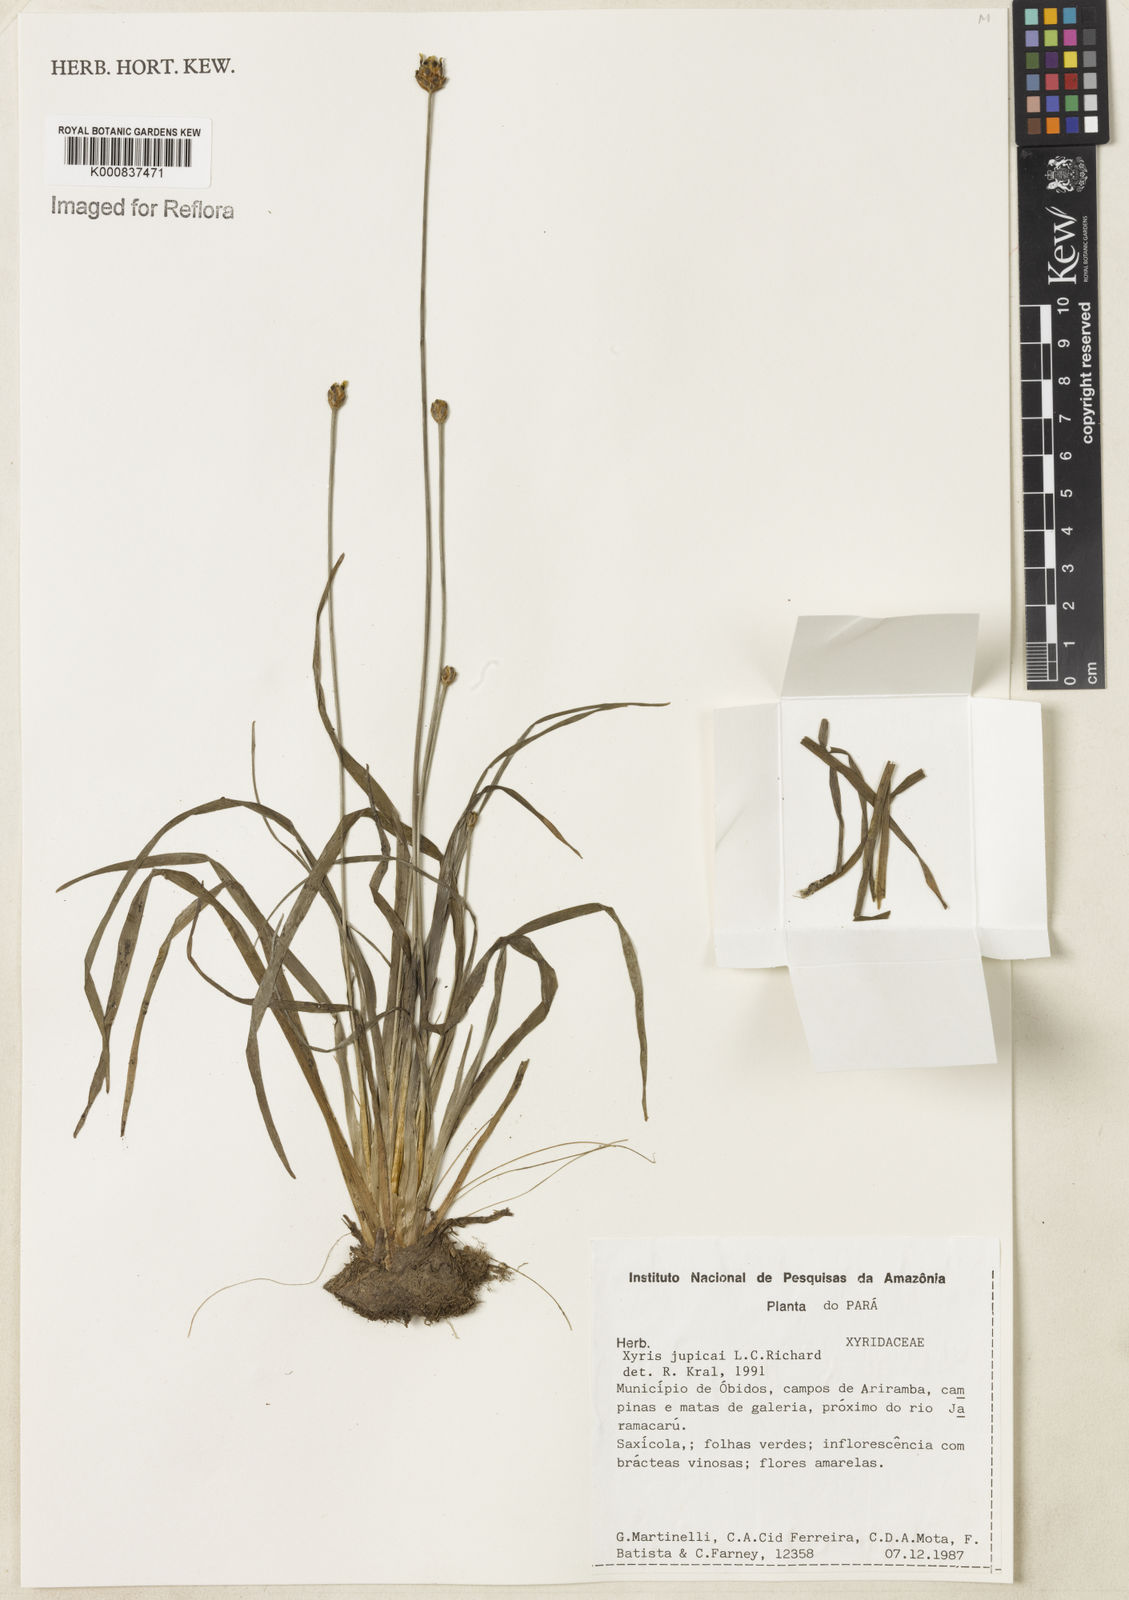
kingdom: Plantae
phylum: Tracheophyta
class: Liliopsida
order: Poales
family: Xyridaceae
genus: Xyris
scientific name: Xyris jupicai
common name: Richard's yelloweyed grass
